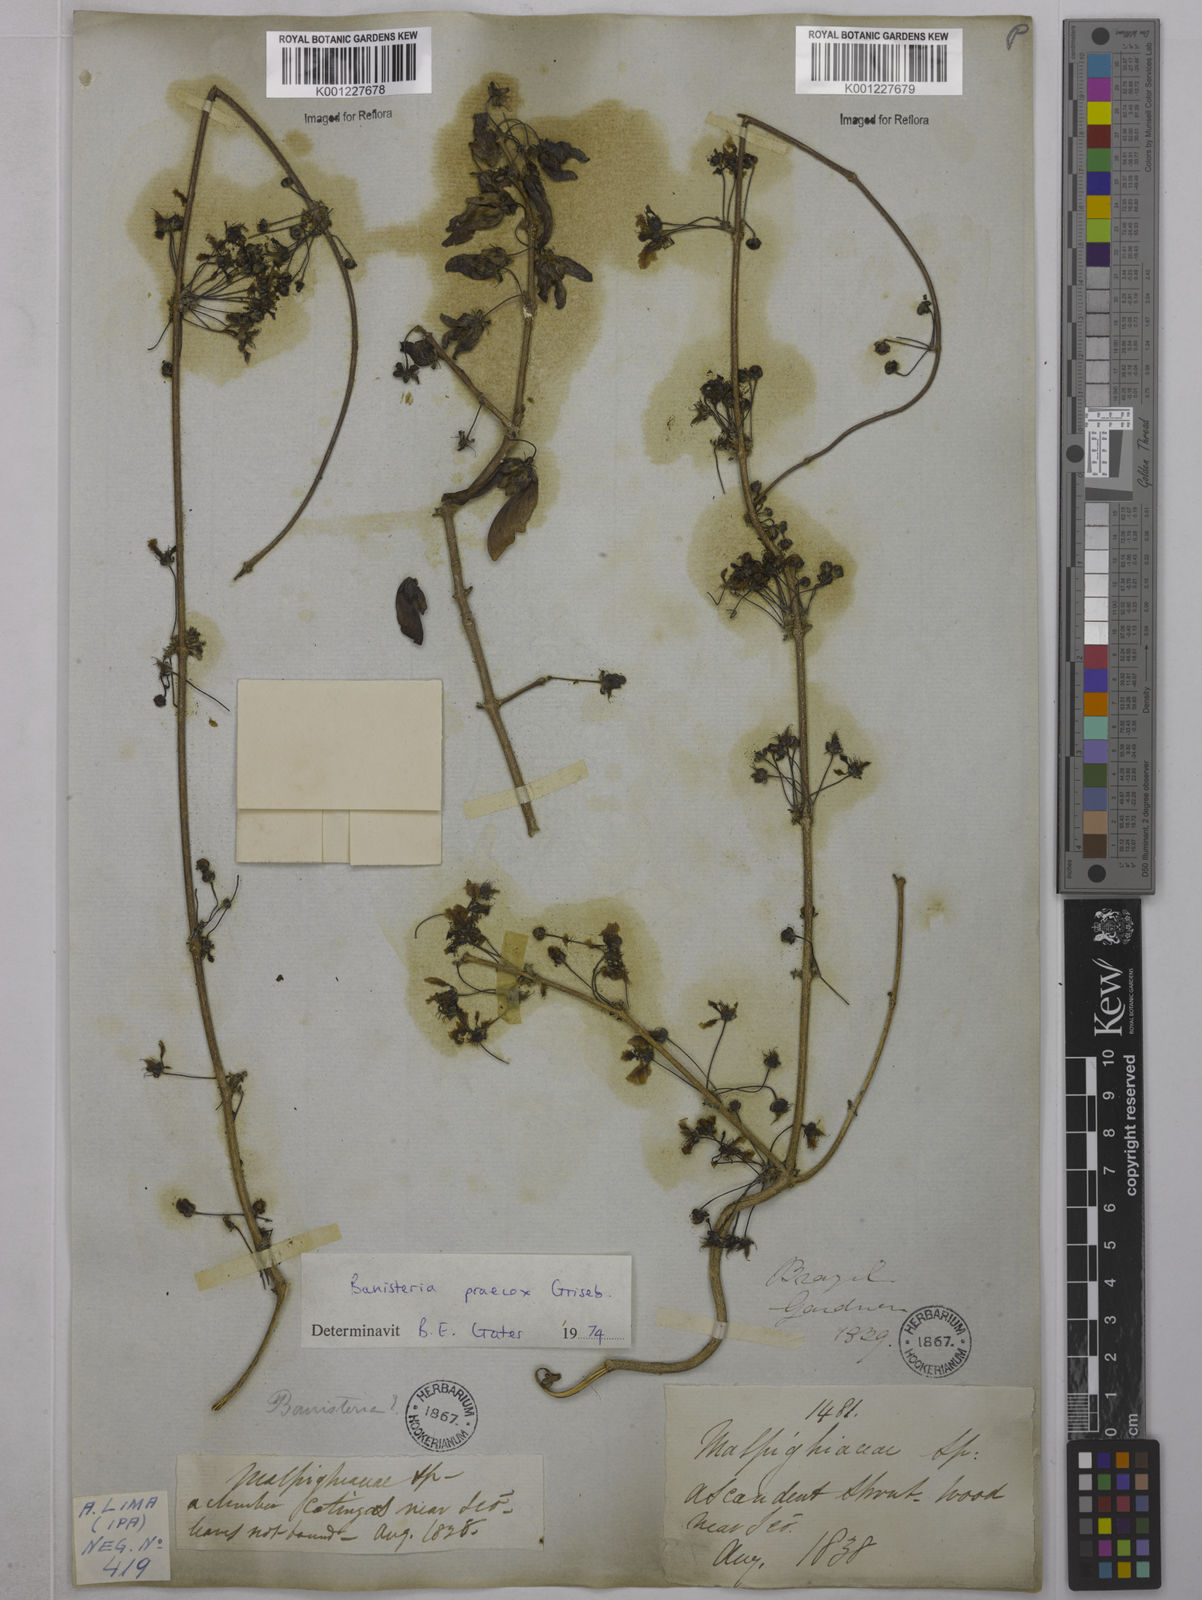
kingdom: Plantae
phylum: Tracheophyta
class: Magnoliopsida
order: Malpighiales
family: Malpighiaceae
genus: Diplopterys
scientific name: Diplopterys lutea
